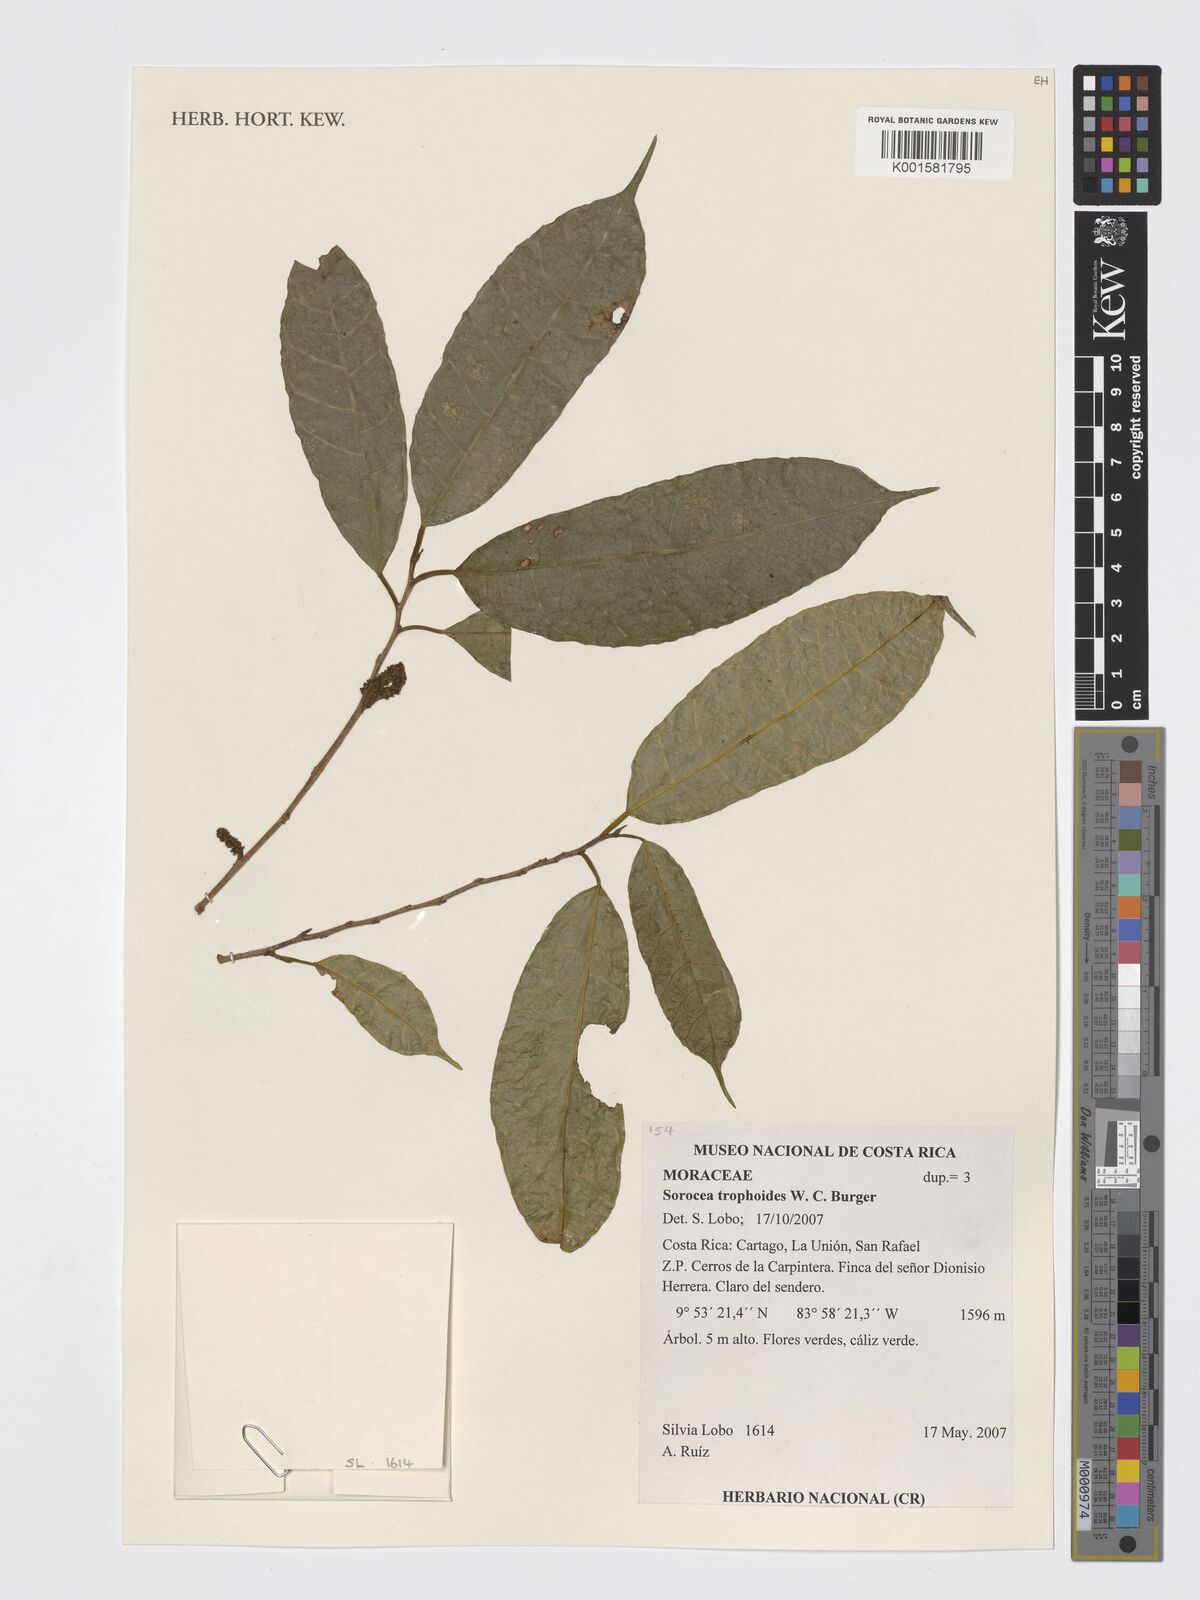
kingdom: Plantae
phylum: Tracheophyta
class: Magnoliopsida
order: Rosales
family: Moraceae
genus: Sorocea
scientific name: Sorocea trophoides
